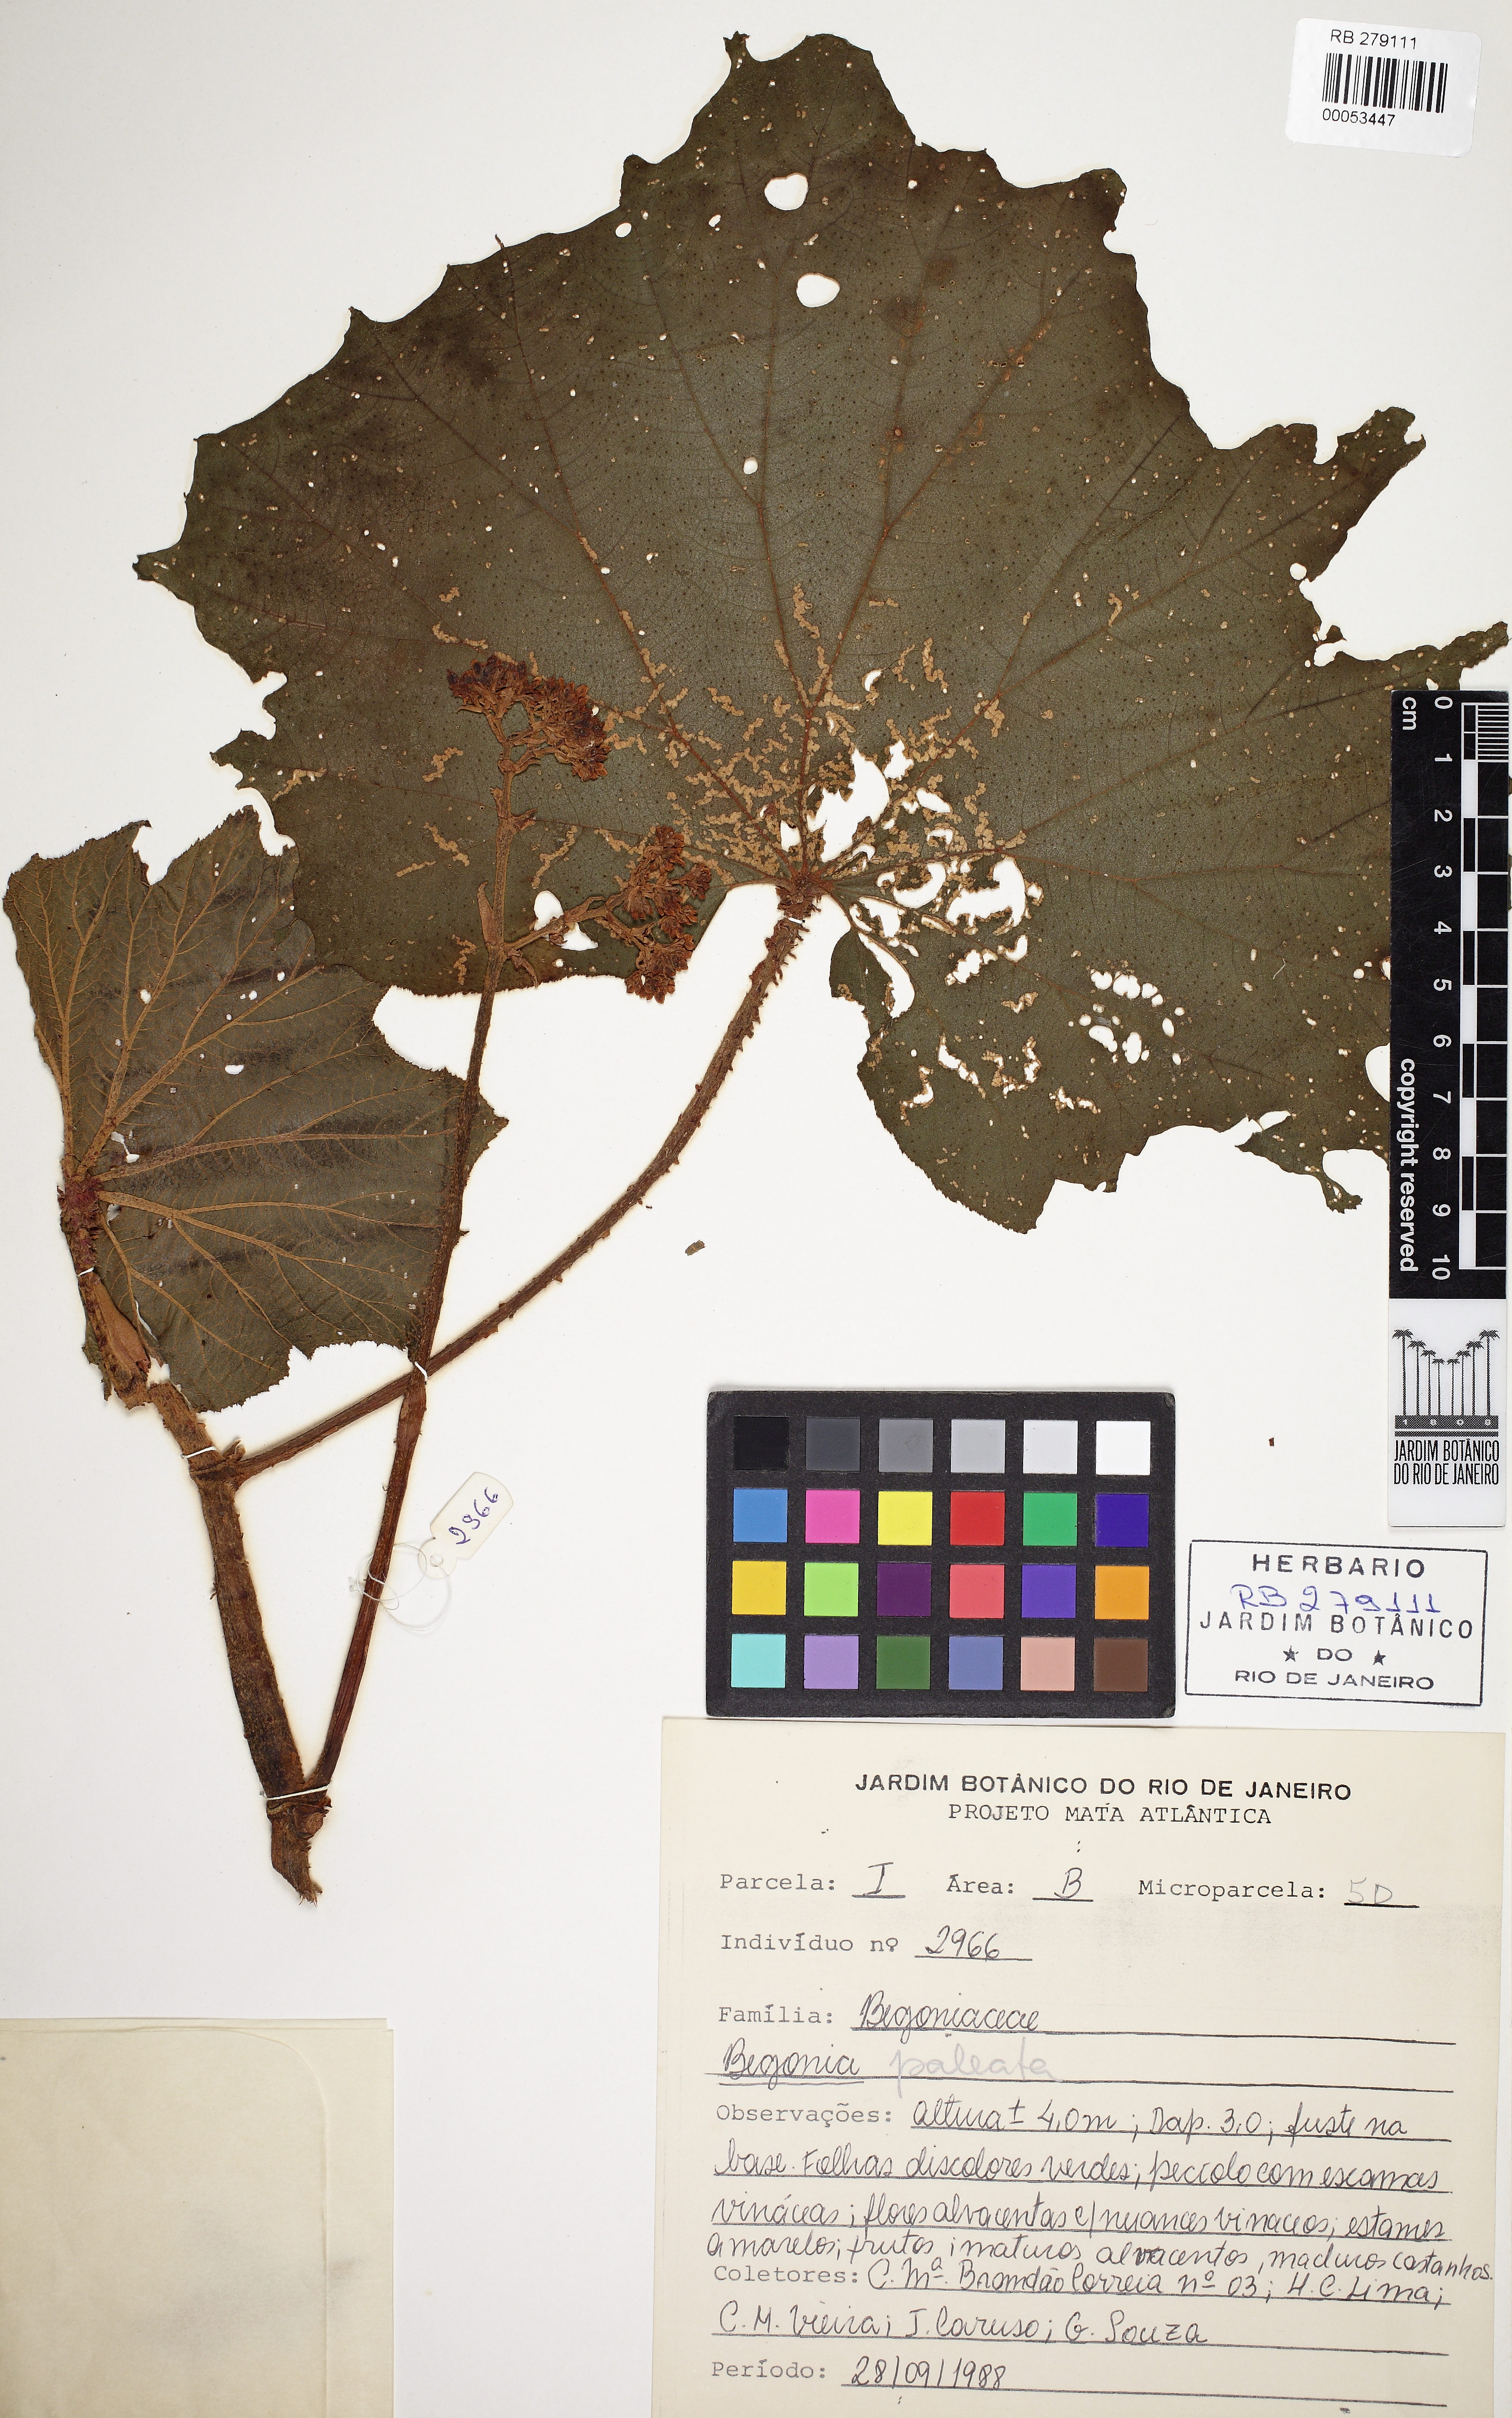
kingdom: Plantae
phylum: Tracheophyta
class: Magnoliopsida
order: Cucurbitales
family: Begoniaceae
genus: Begonia
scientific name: Begonia paleata
